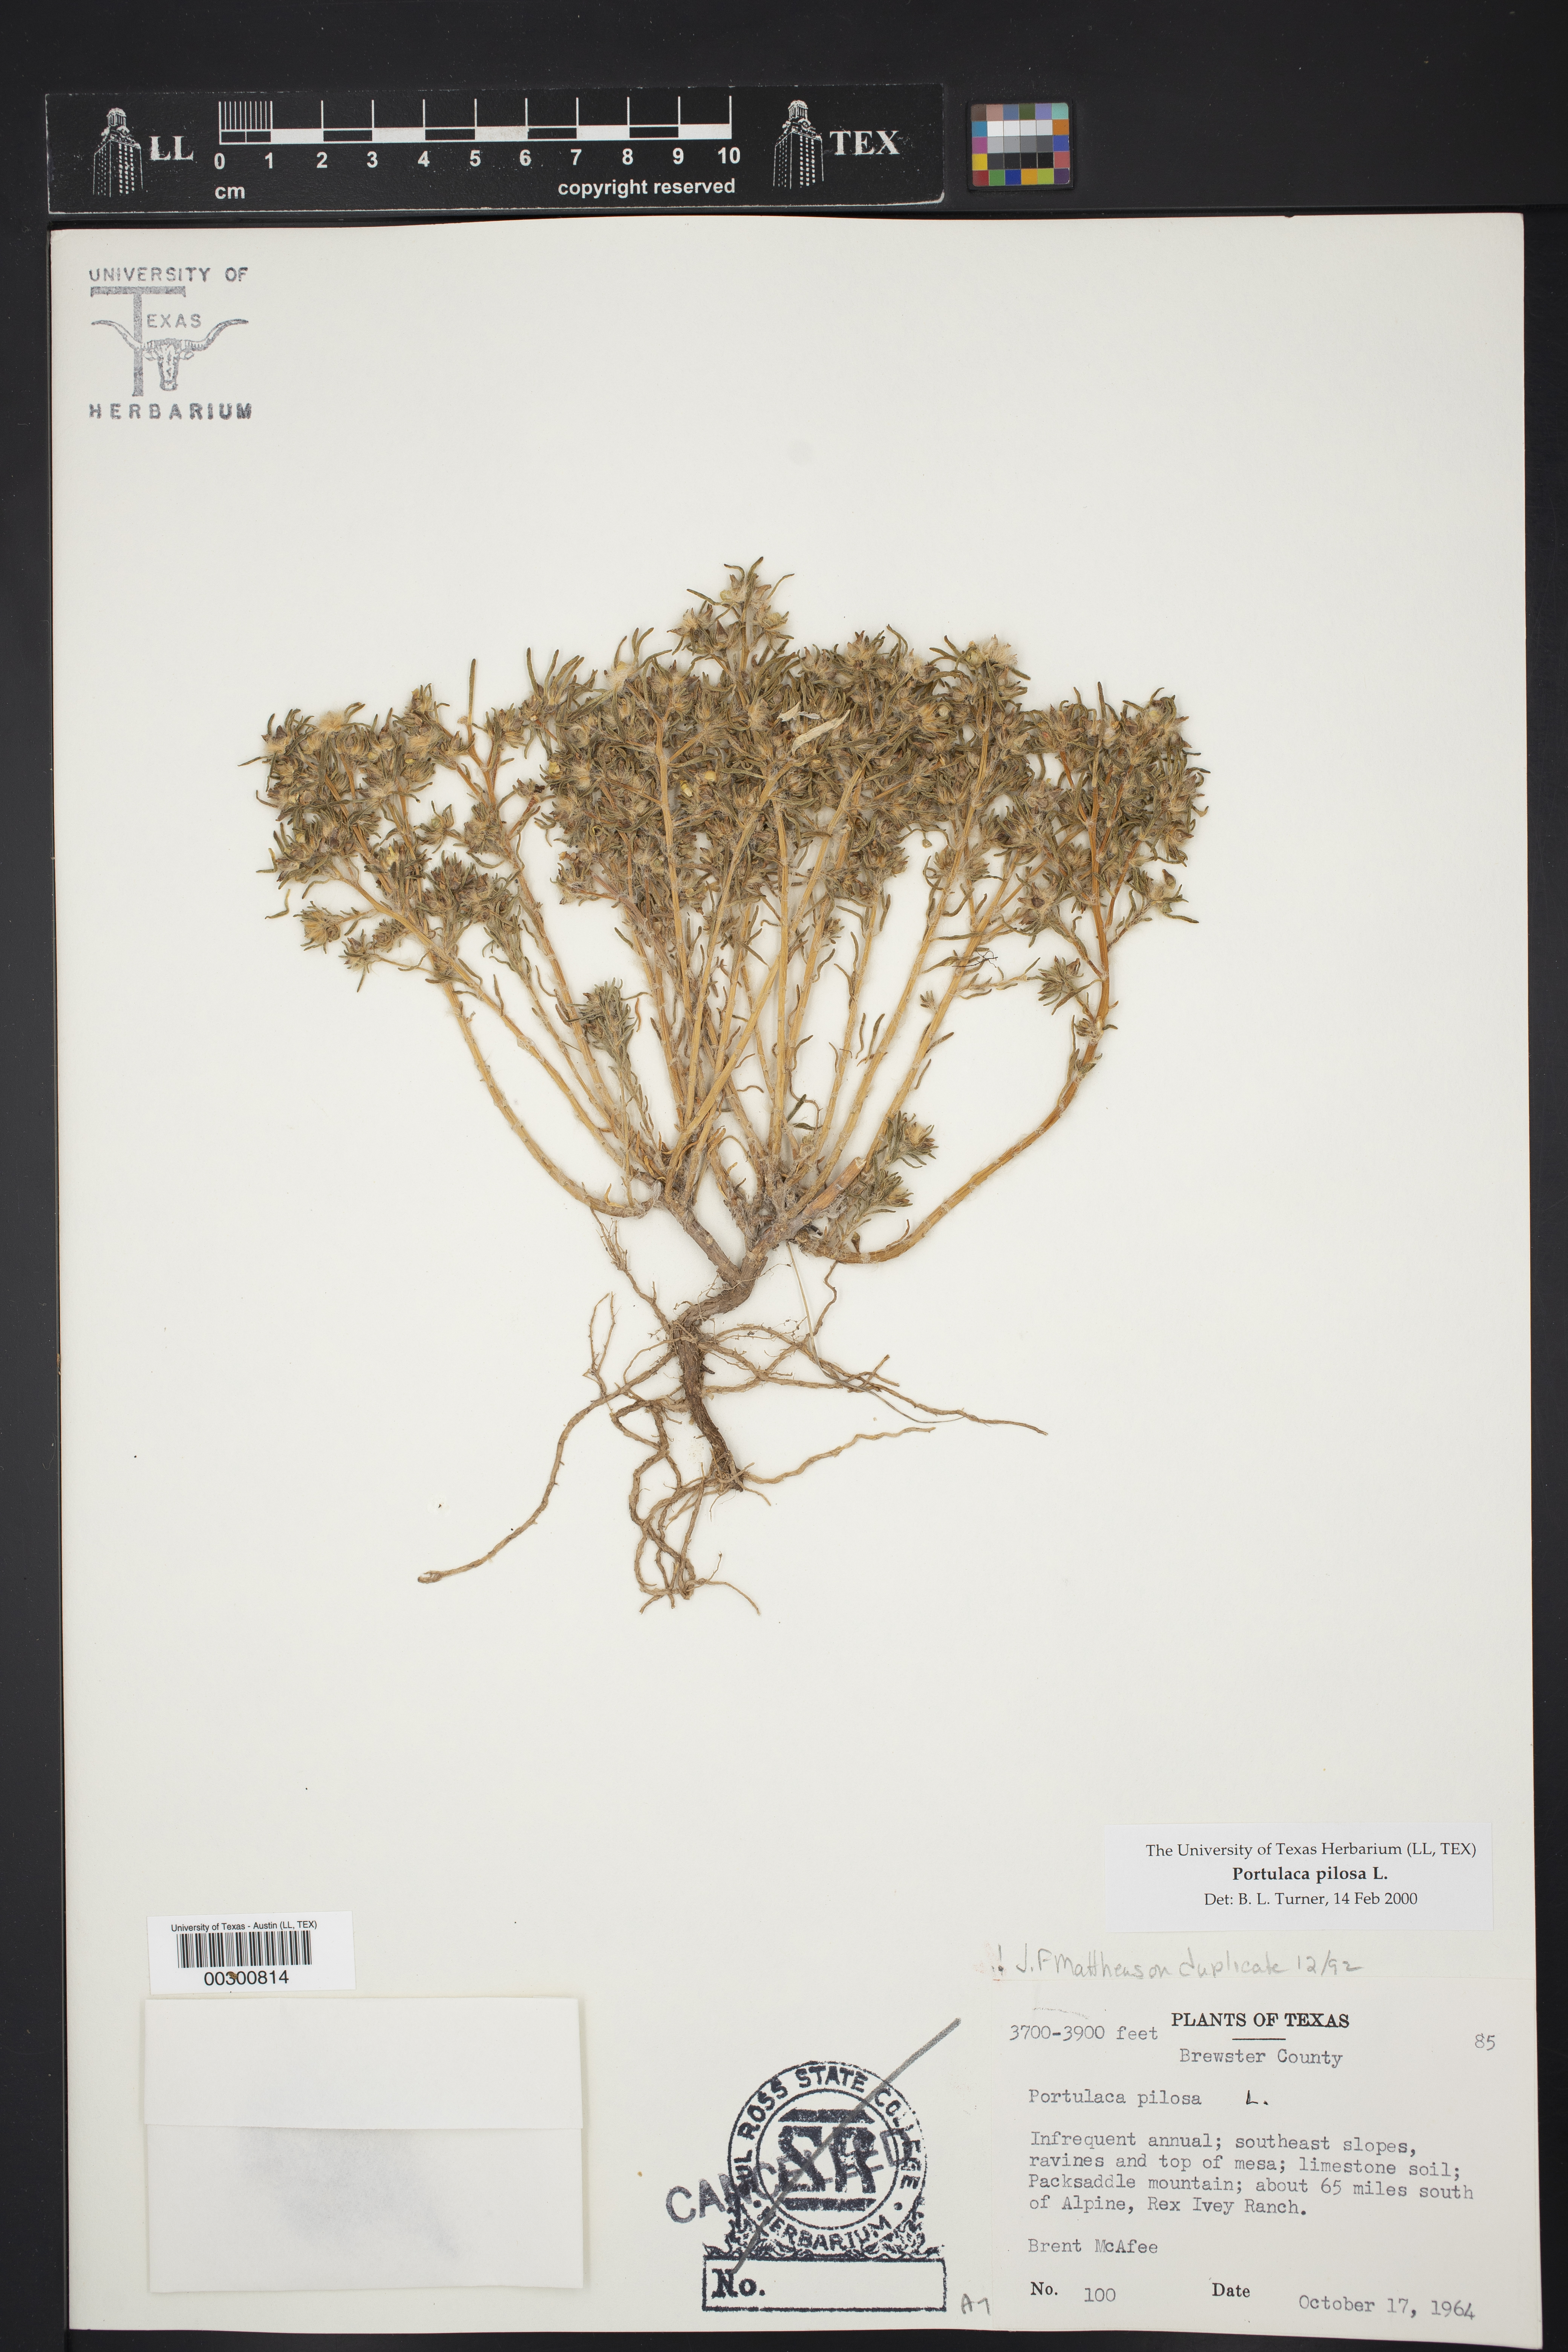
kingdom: Plantae
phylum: Tracheophyta
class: Magnoliopsida
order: Caryophyllales
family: Portulacaceae
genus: Portulaca
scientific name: Portulaca pilosa
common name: Kiss me quick
